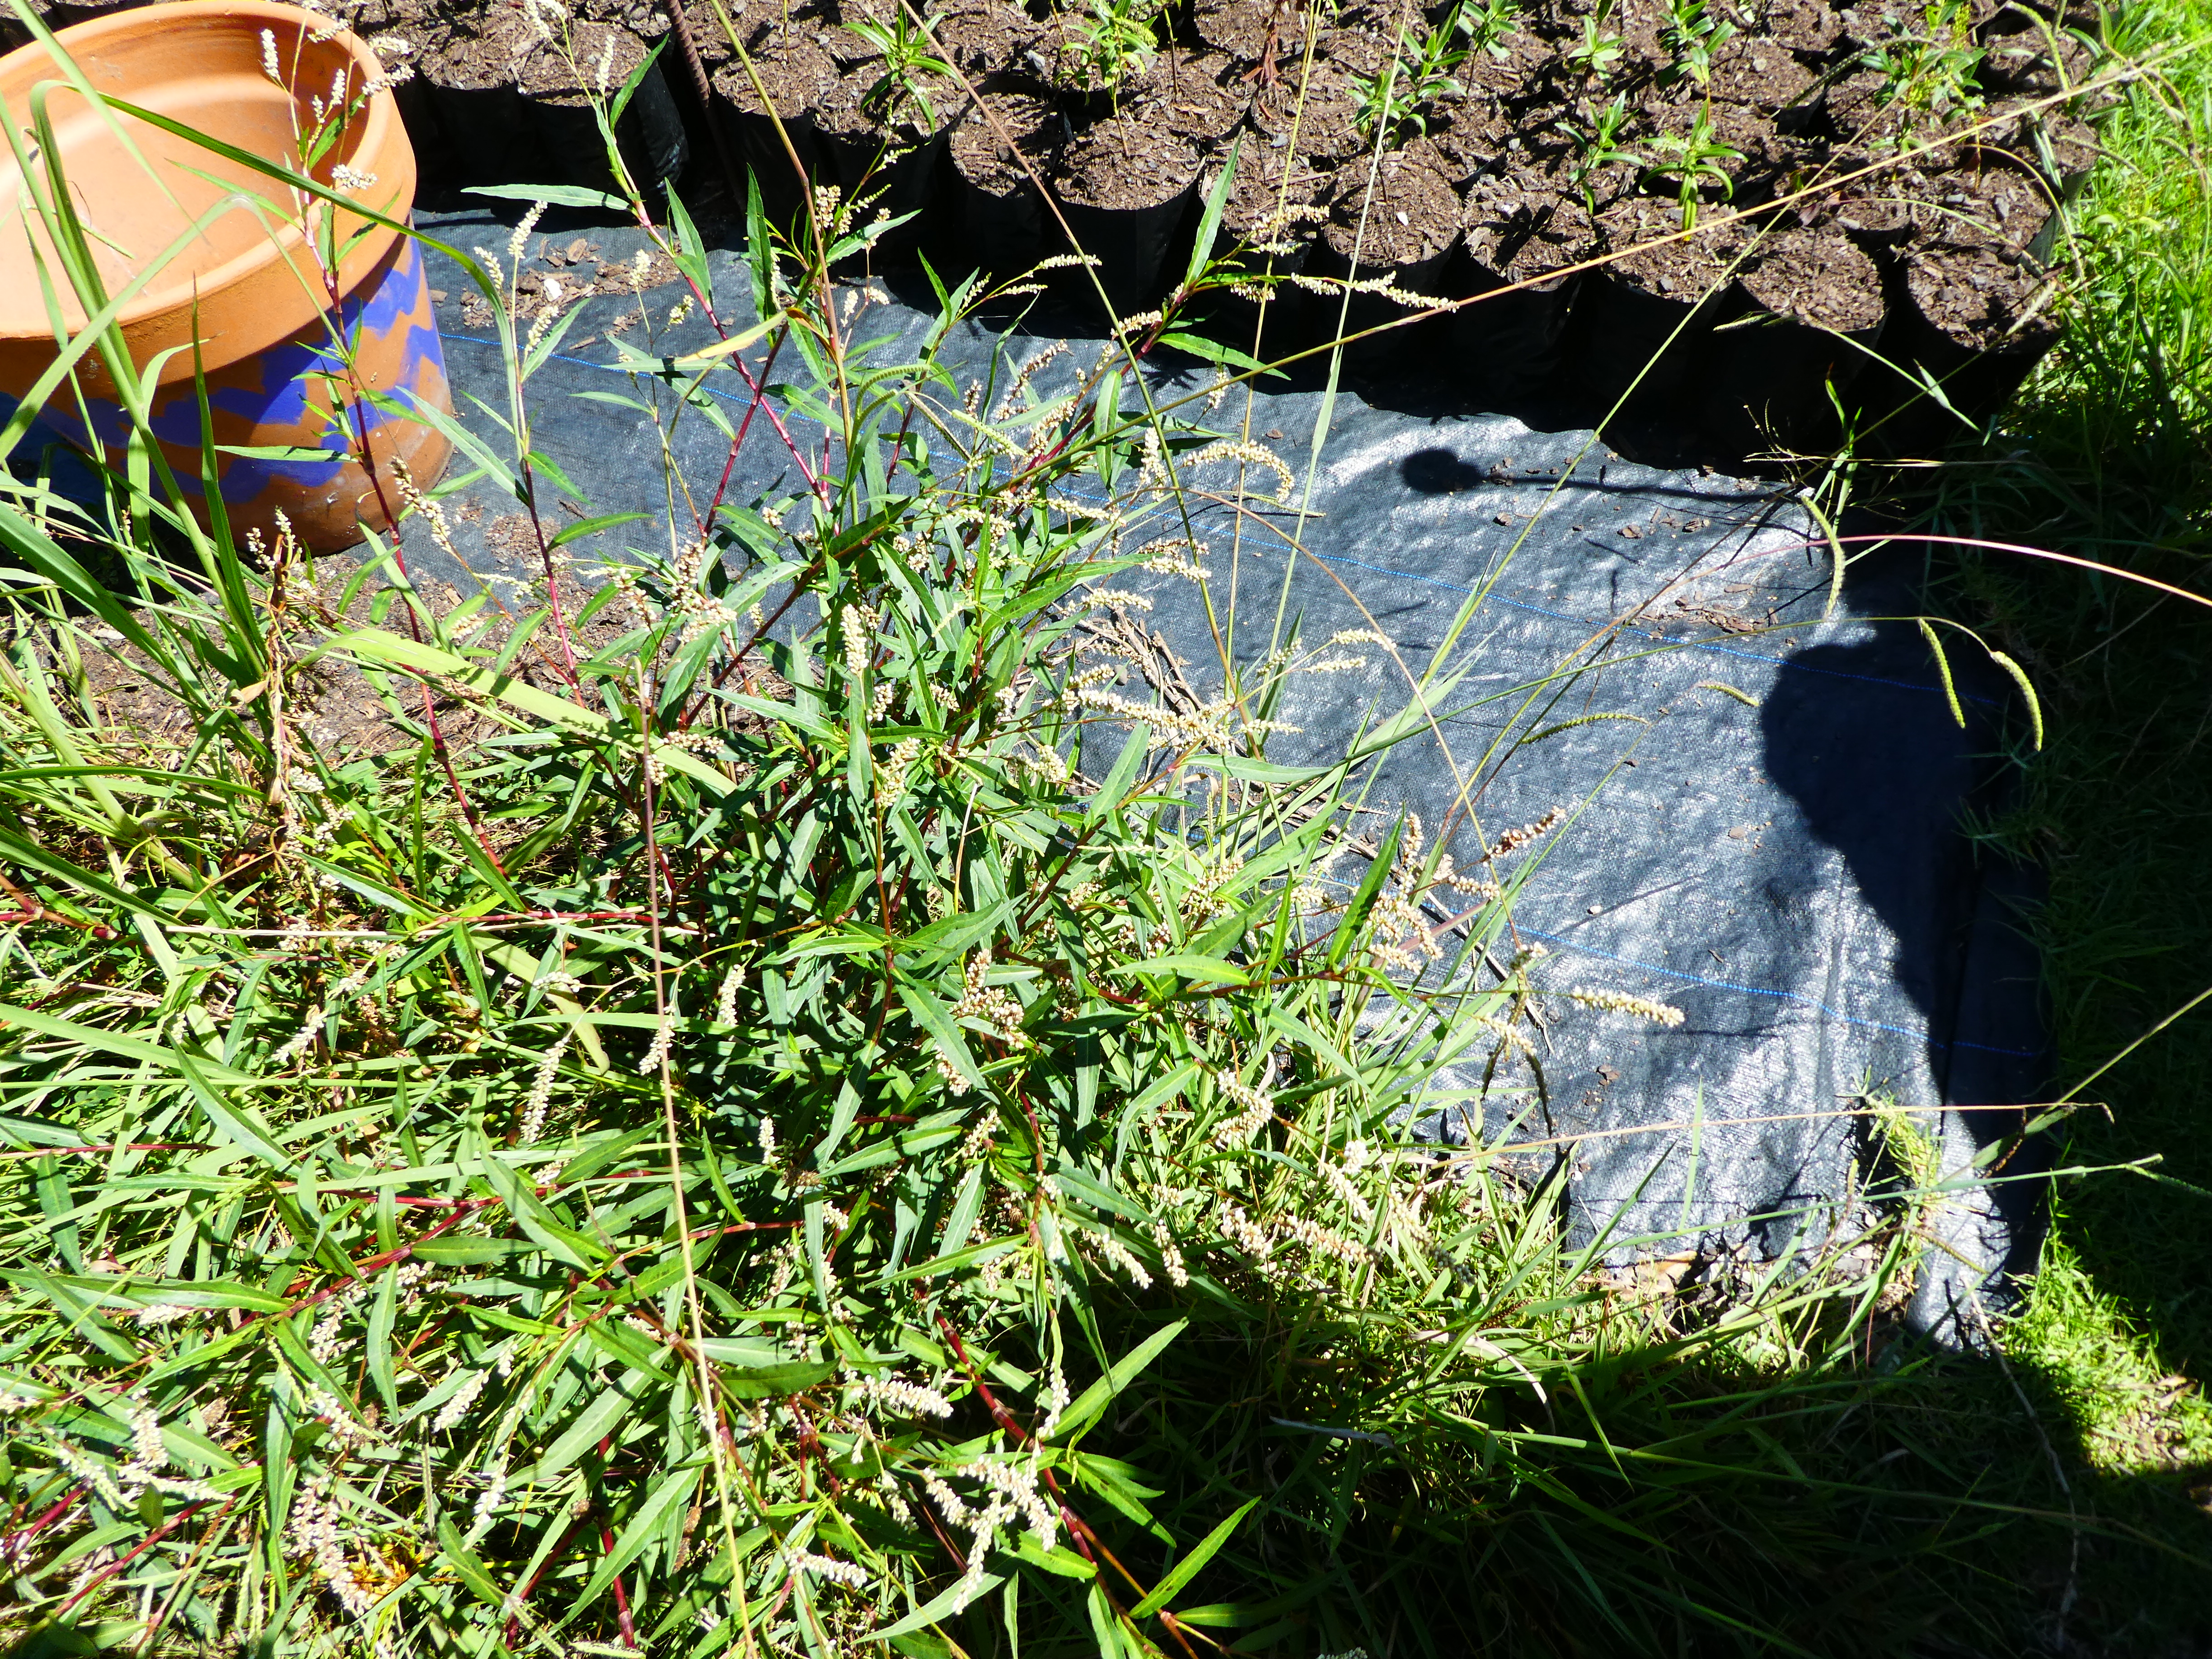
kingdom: Plantae
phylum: Tracheophyta
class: Magnoliopsida
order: Caryophyllales
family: Polygonaceae
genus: Persicaria
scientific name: Persicaria maculosa
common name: Redshank
